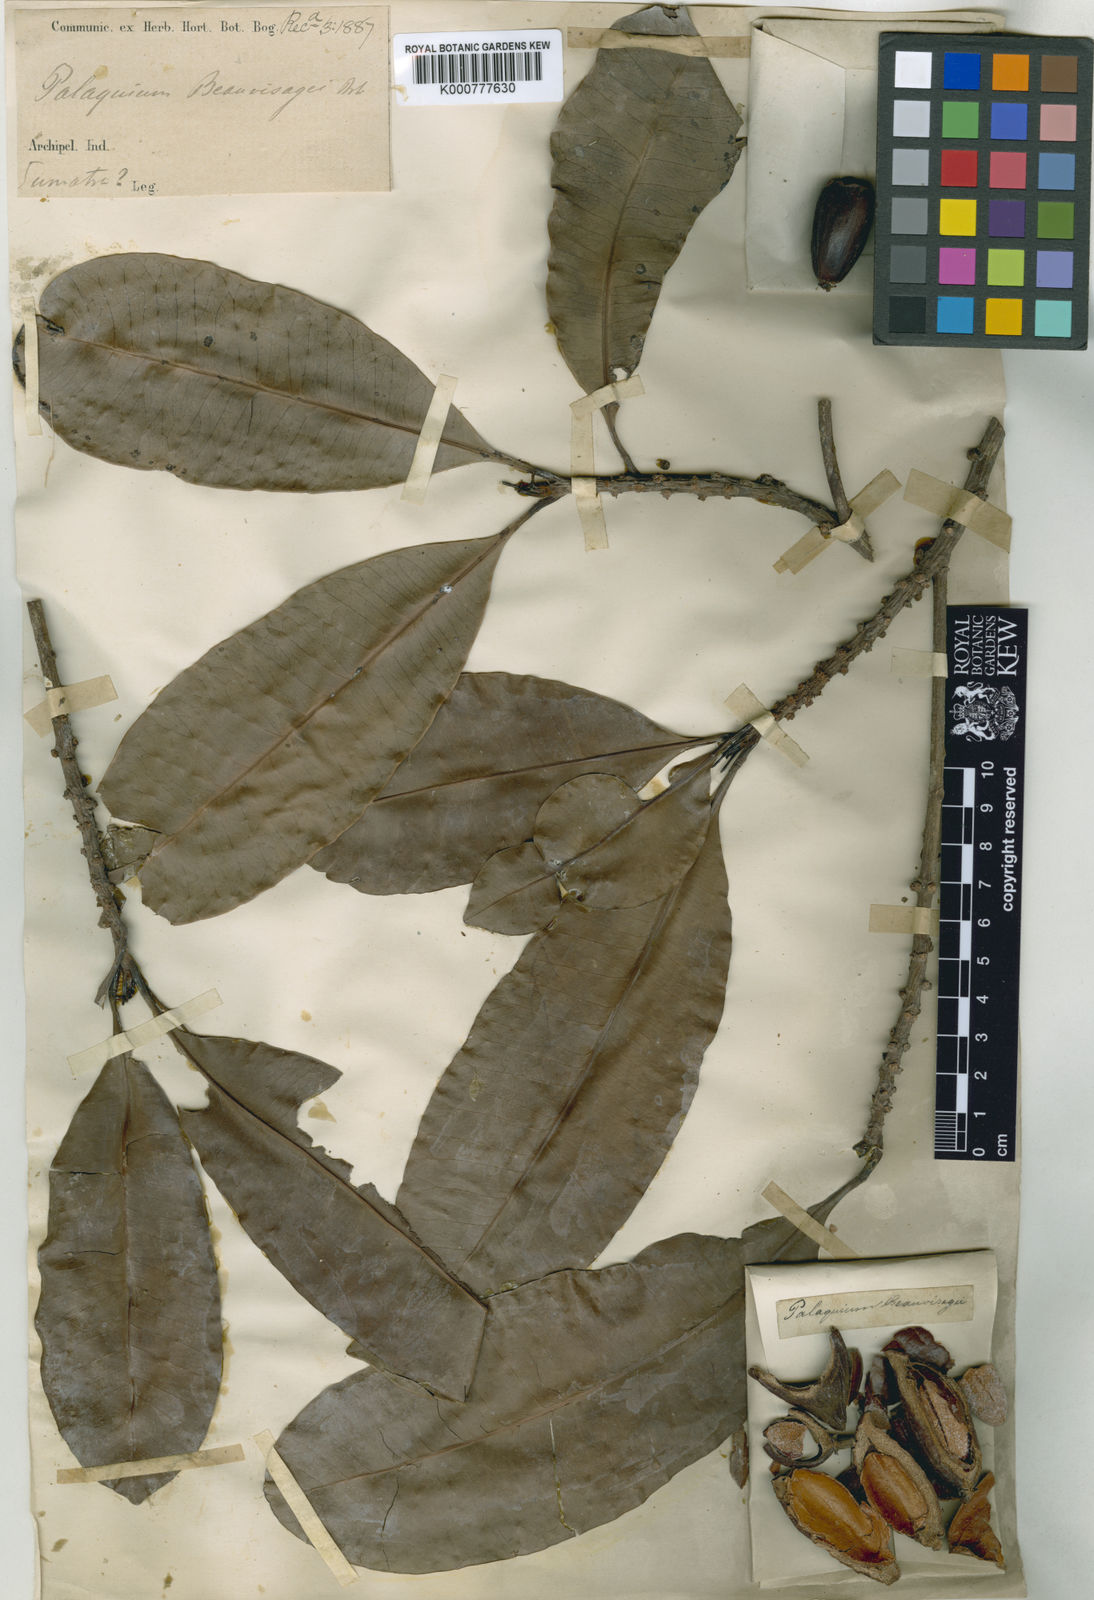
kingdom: Plantae
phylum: Tracheophyta
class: Magnoliopsida
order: Ericales
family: Sapotaceae
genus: Palaquium
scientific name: Palaquium sumatranum
